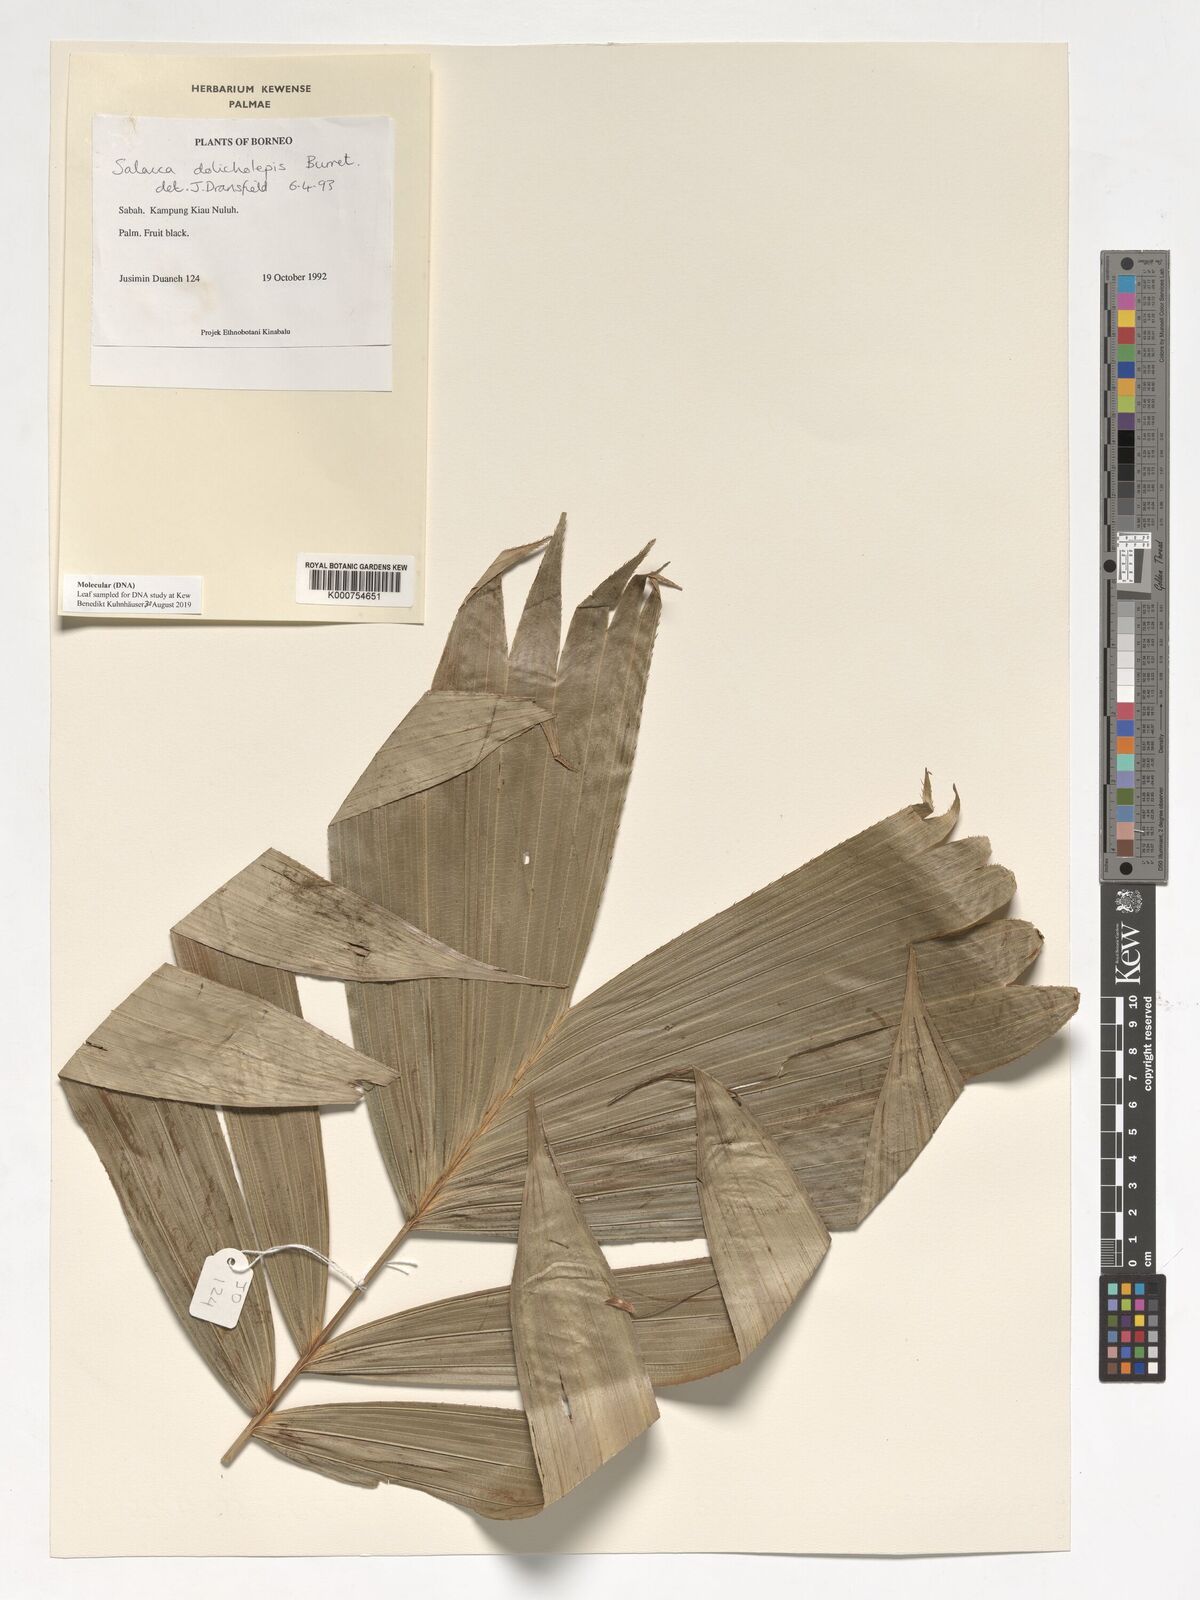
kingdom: Plantae
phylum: Tracheophyta
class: Liliopsida
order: Arecales
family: Arecaceae
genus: Salacca
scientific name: Salacca dolicholepis
